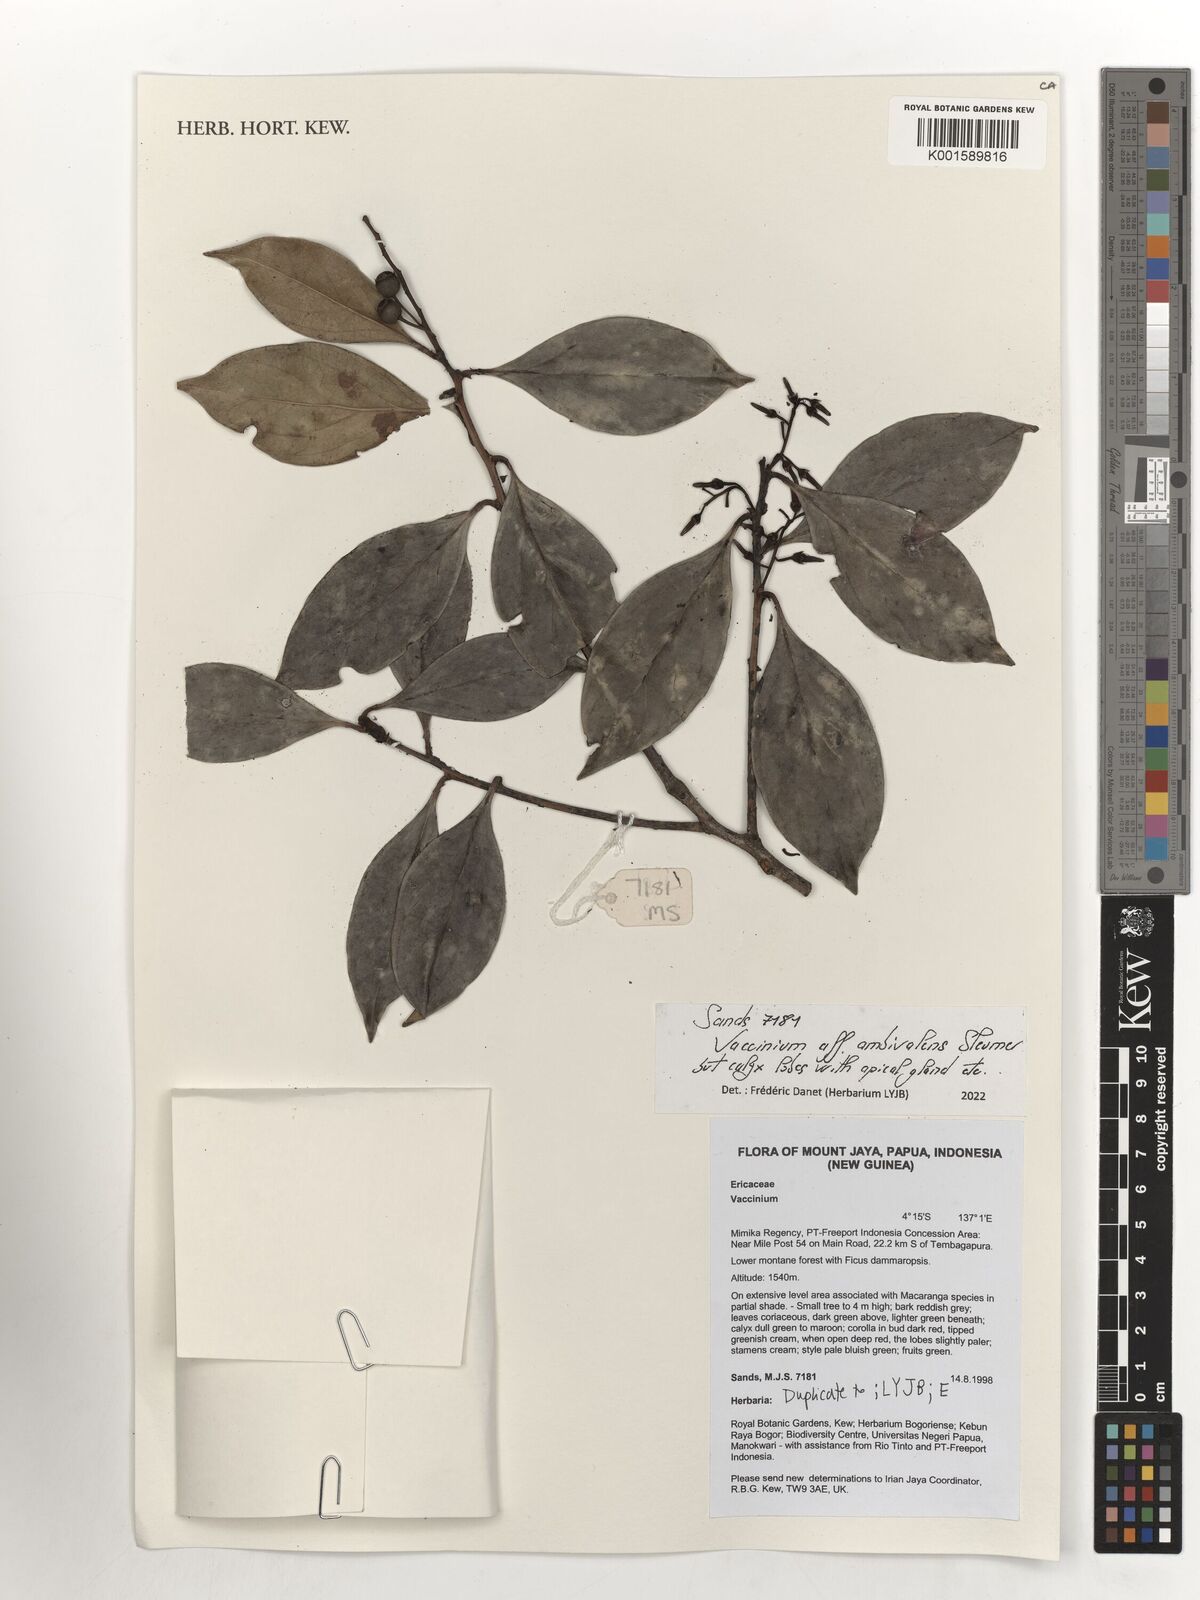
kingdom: Plantae
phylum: Tracheophyta
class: Magnoliopsida
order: Ericales
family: Ericaceae
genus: Vaccinium
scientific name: Vaccinium ambivalens
